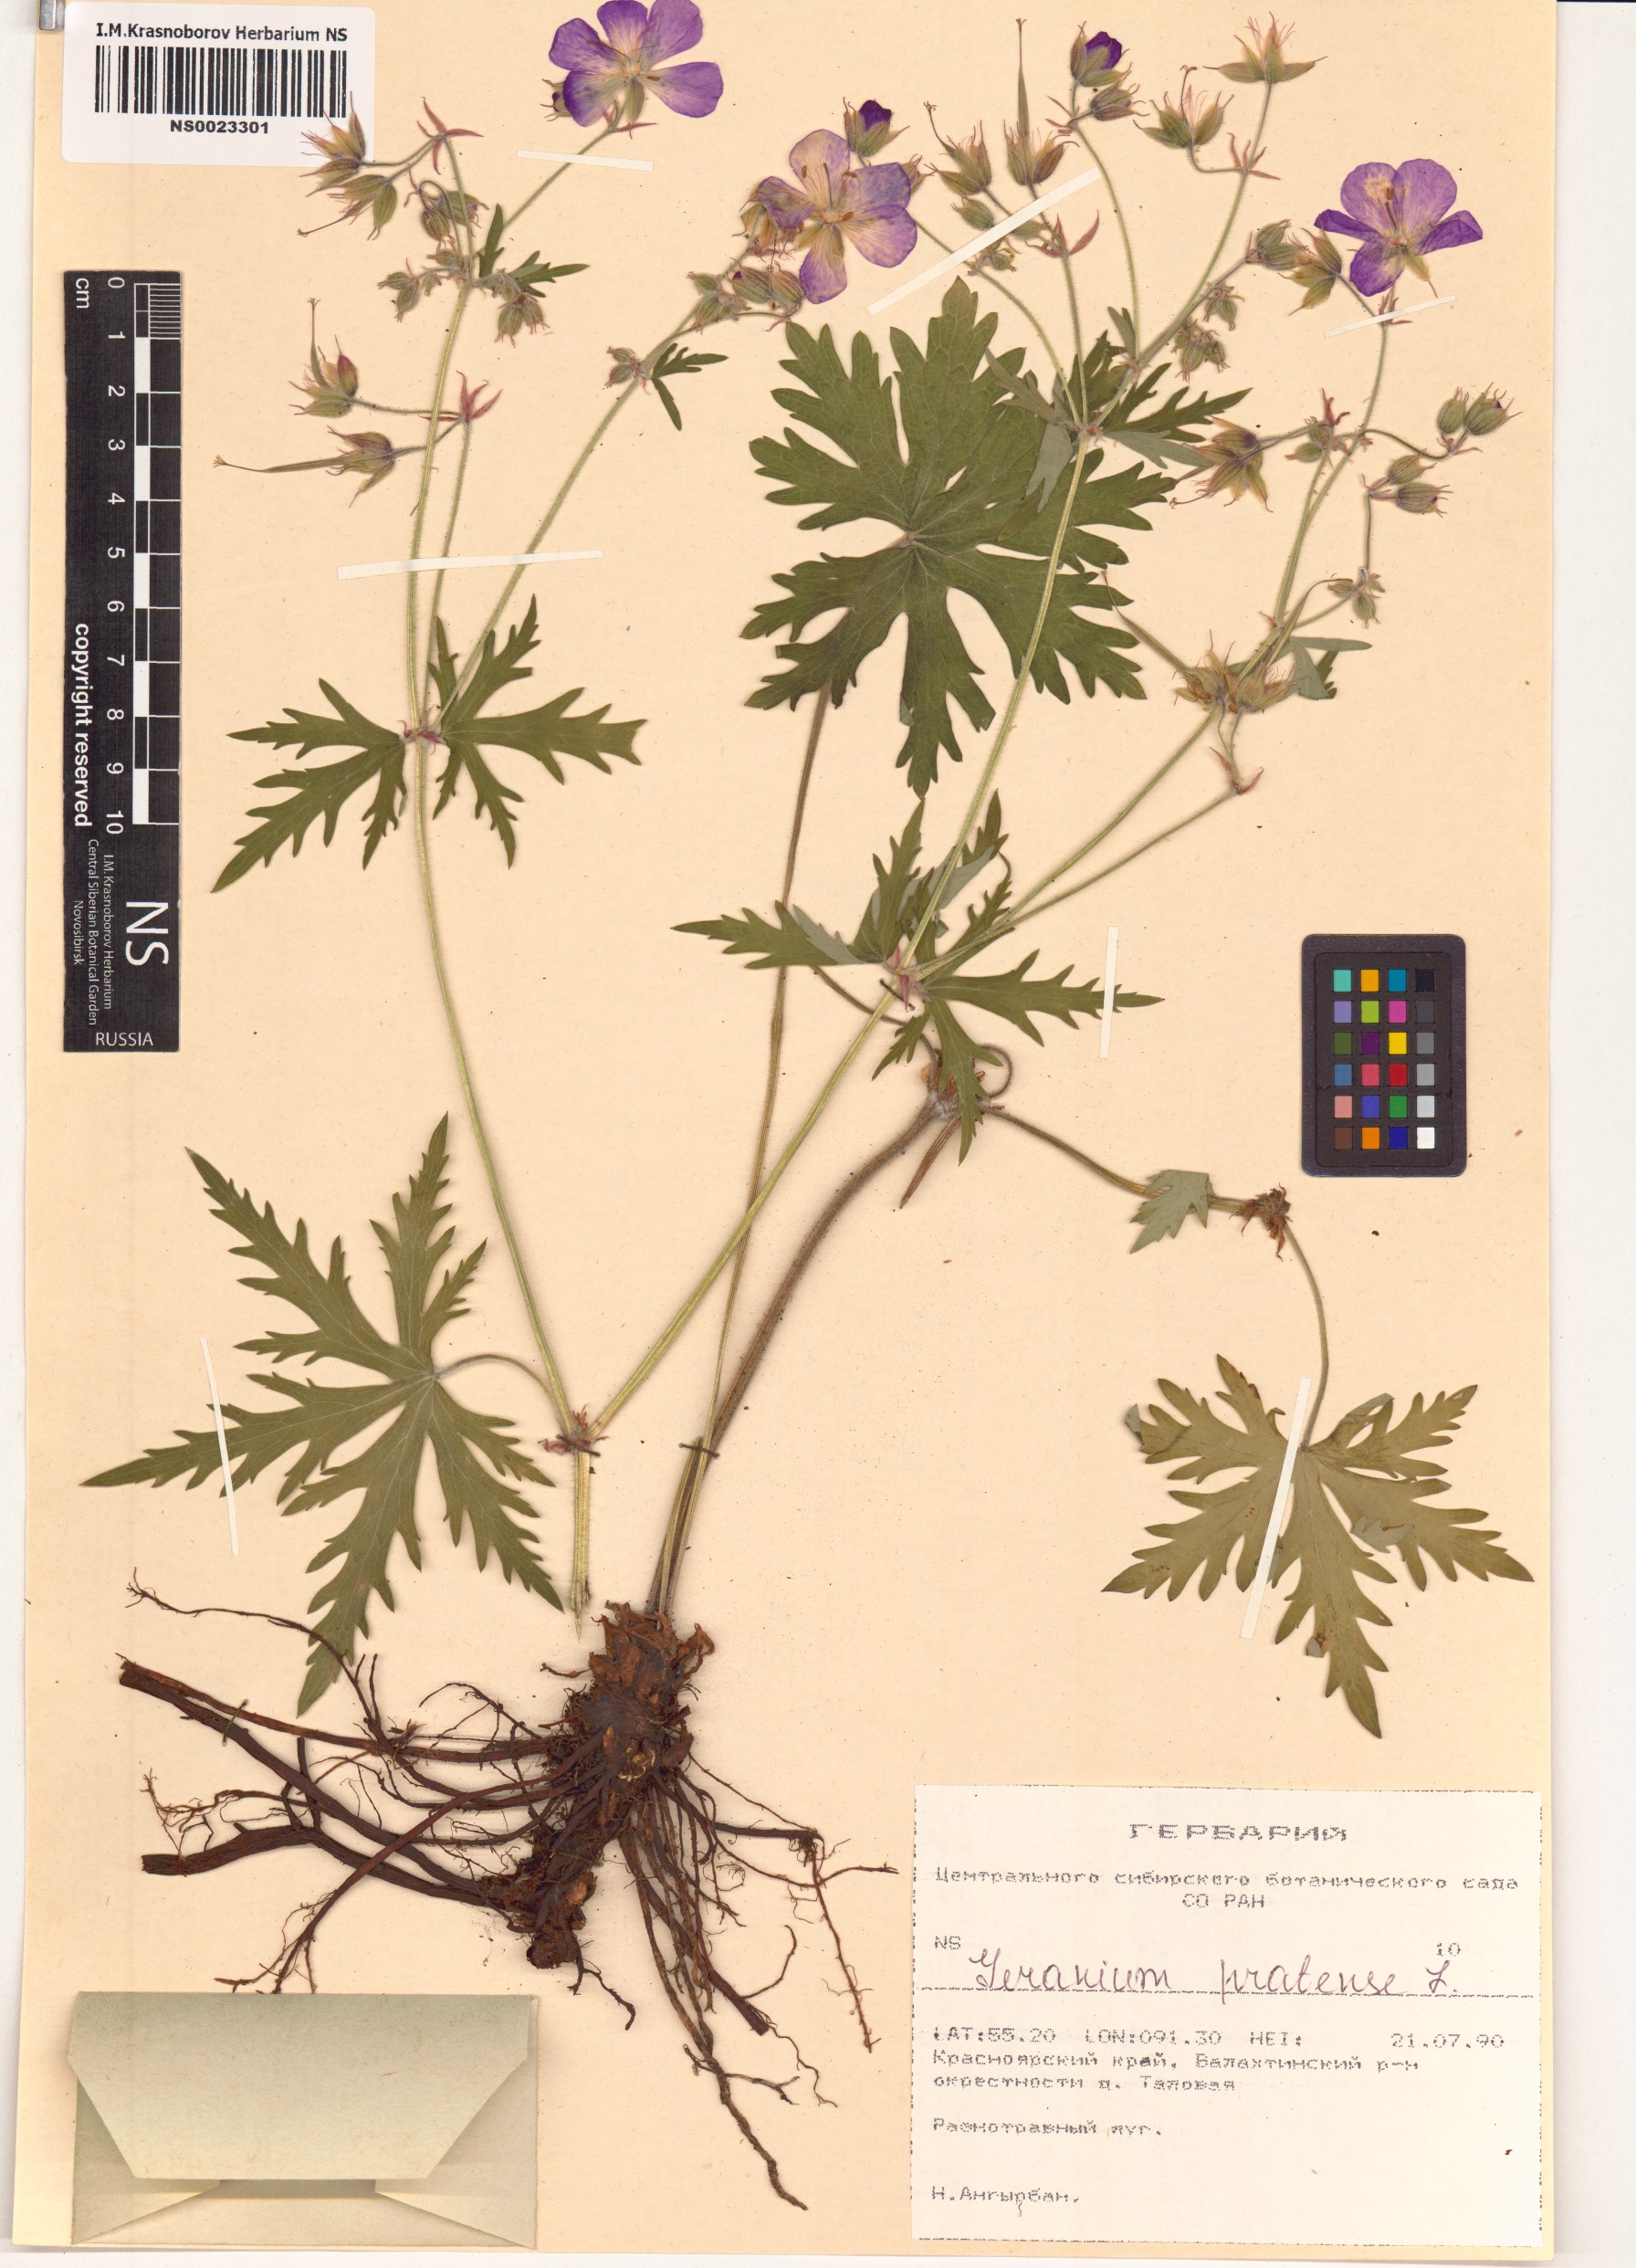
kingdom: Plantae
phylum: Tracheophyta
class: Magnoliopsida
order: Geraniales
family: Geraniaceae
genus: Geranium
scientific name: Geranium pratense
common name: Meadow crane's-bill
